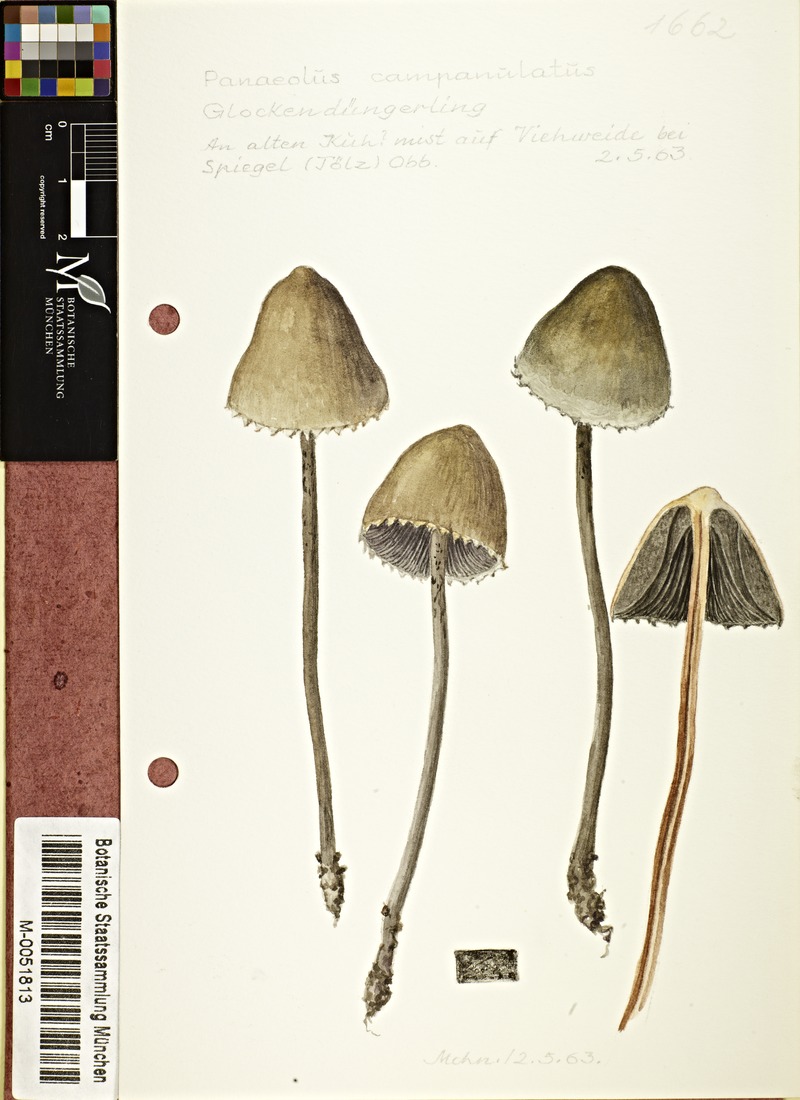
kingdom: Fungi
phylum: Basidiomycota
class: Agaricomycetes
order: Agaricales
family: Bolbitiaceae
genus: Panaeolus
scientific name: Panaeolus papilionaceus
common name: Petticoat mottlegill
